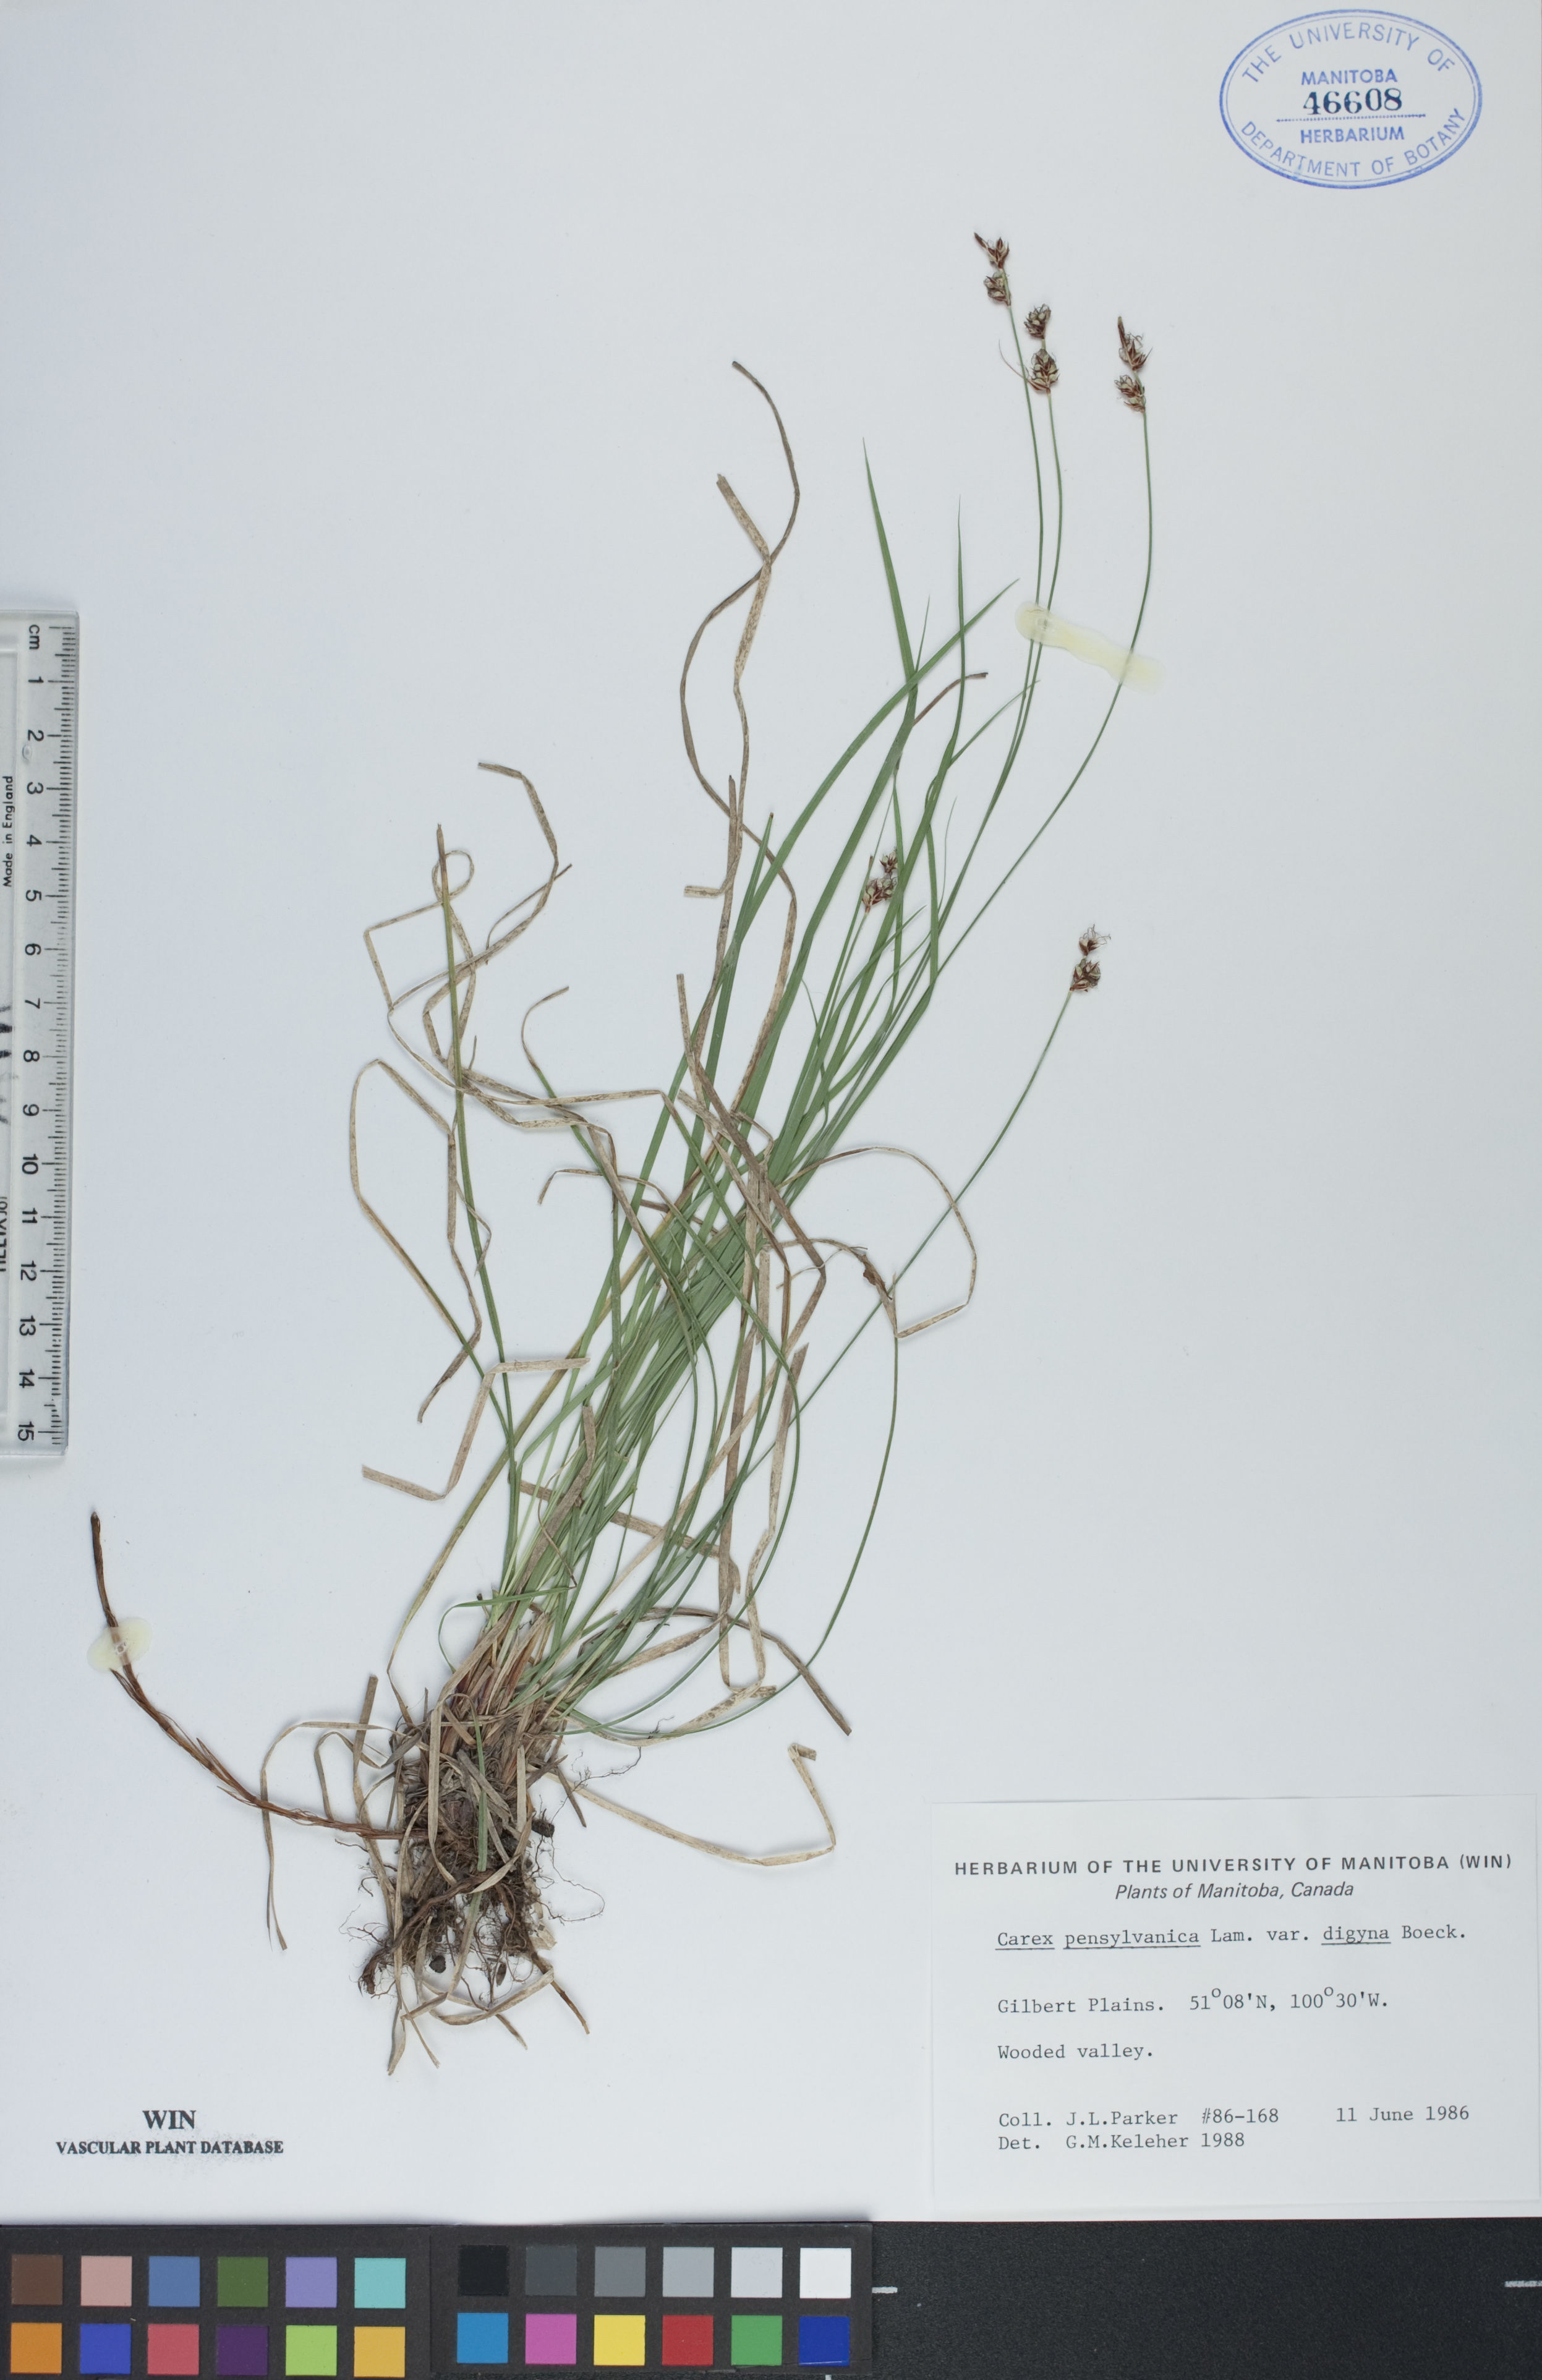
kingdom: Plantae
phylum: Tracheophyta
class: Liliopsida
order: Poales
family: Cyperaceae
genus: Carex
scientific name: Carex pensylvanica
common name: Common oak sedge
